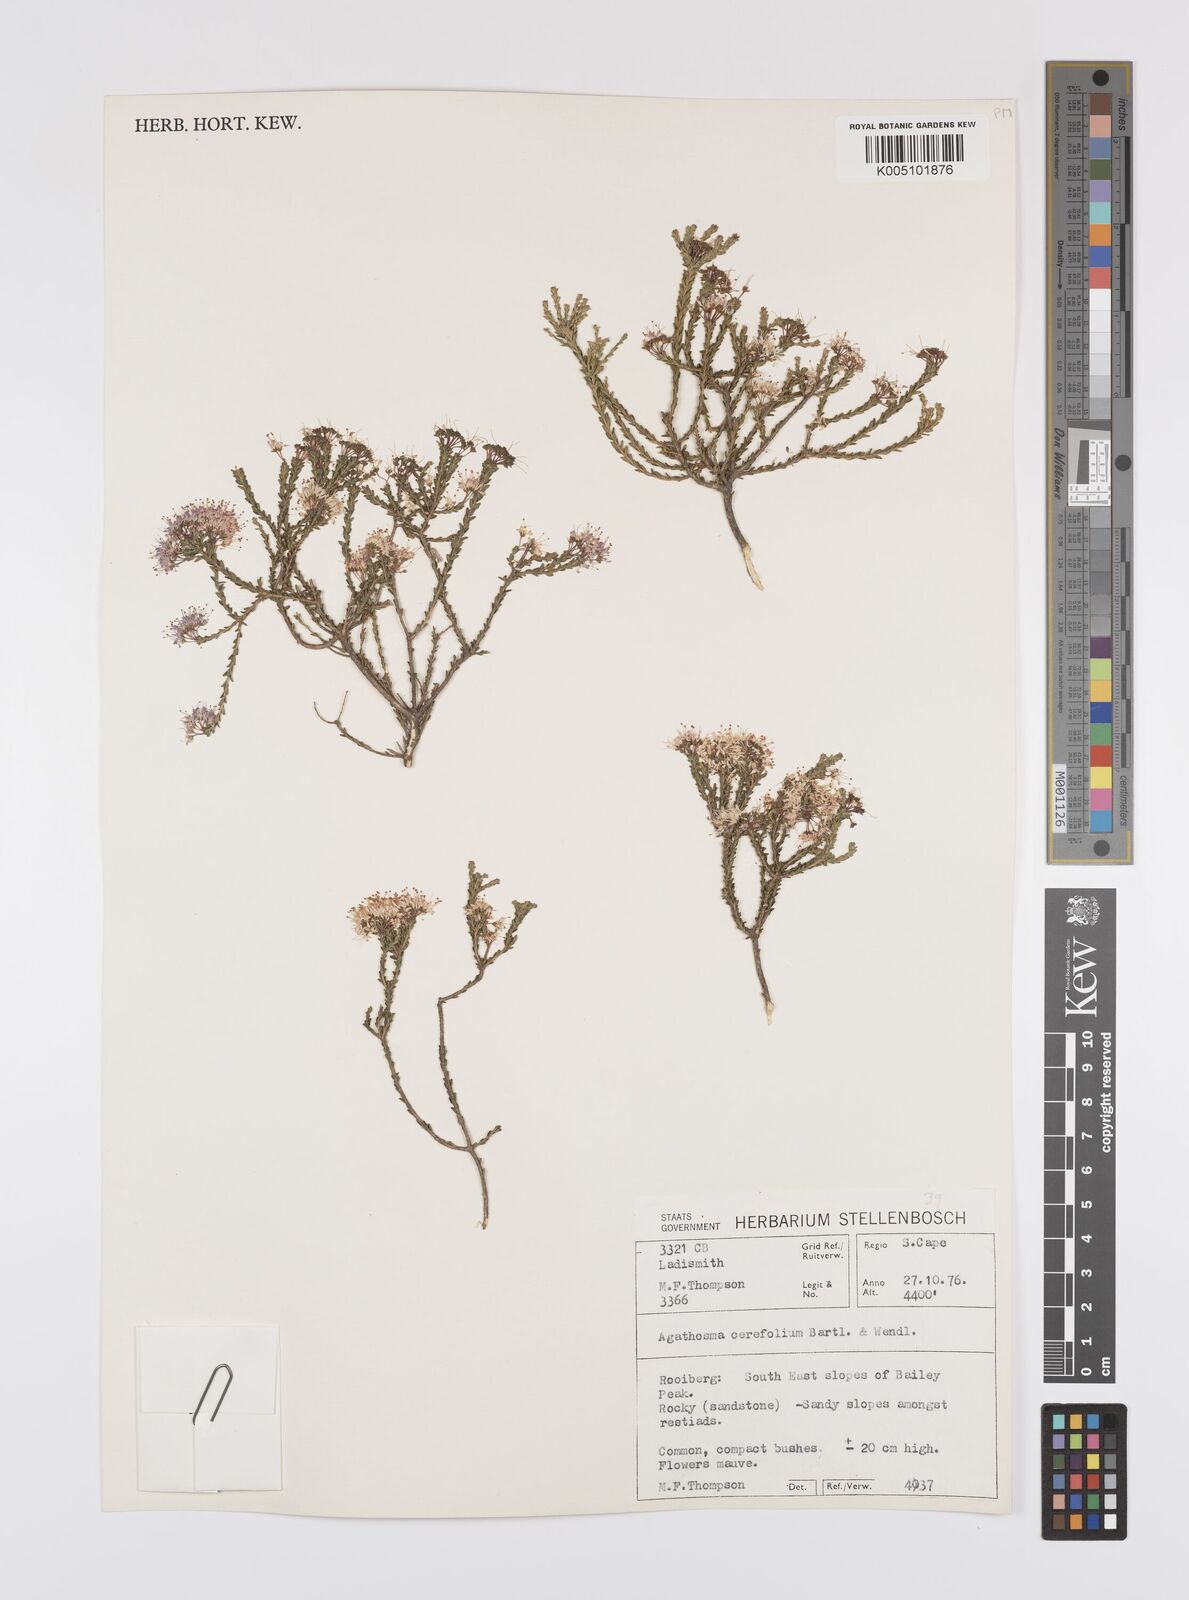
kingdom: Plantae
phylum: Tracheophyta
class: Magnoliopsida
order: Sapindales
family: Rutaceae
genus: Agathosma
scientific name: Agathosma cerefolia
